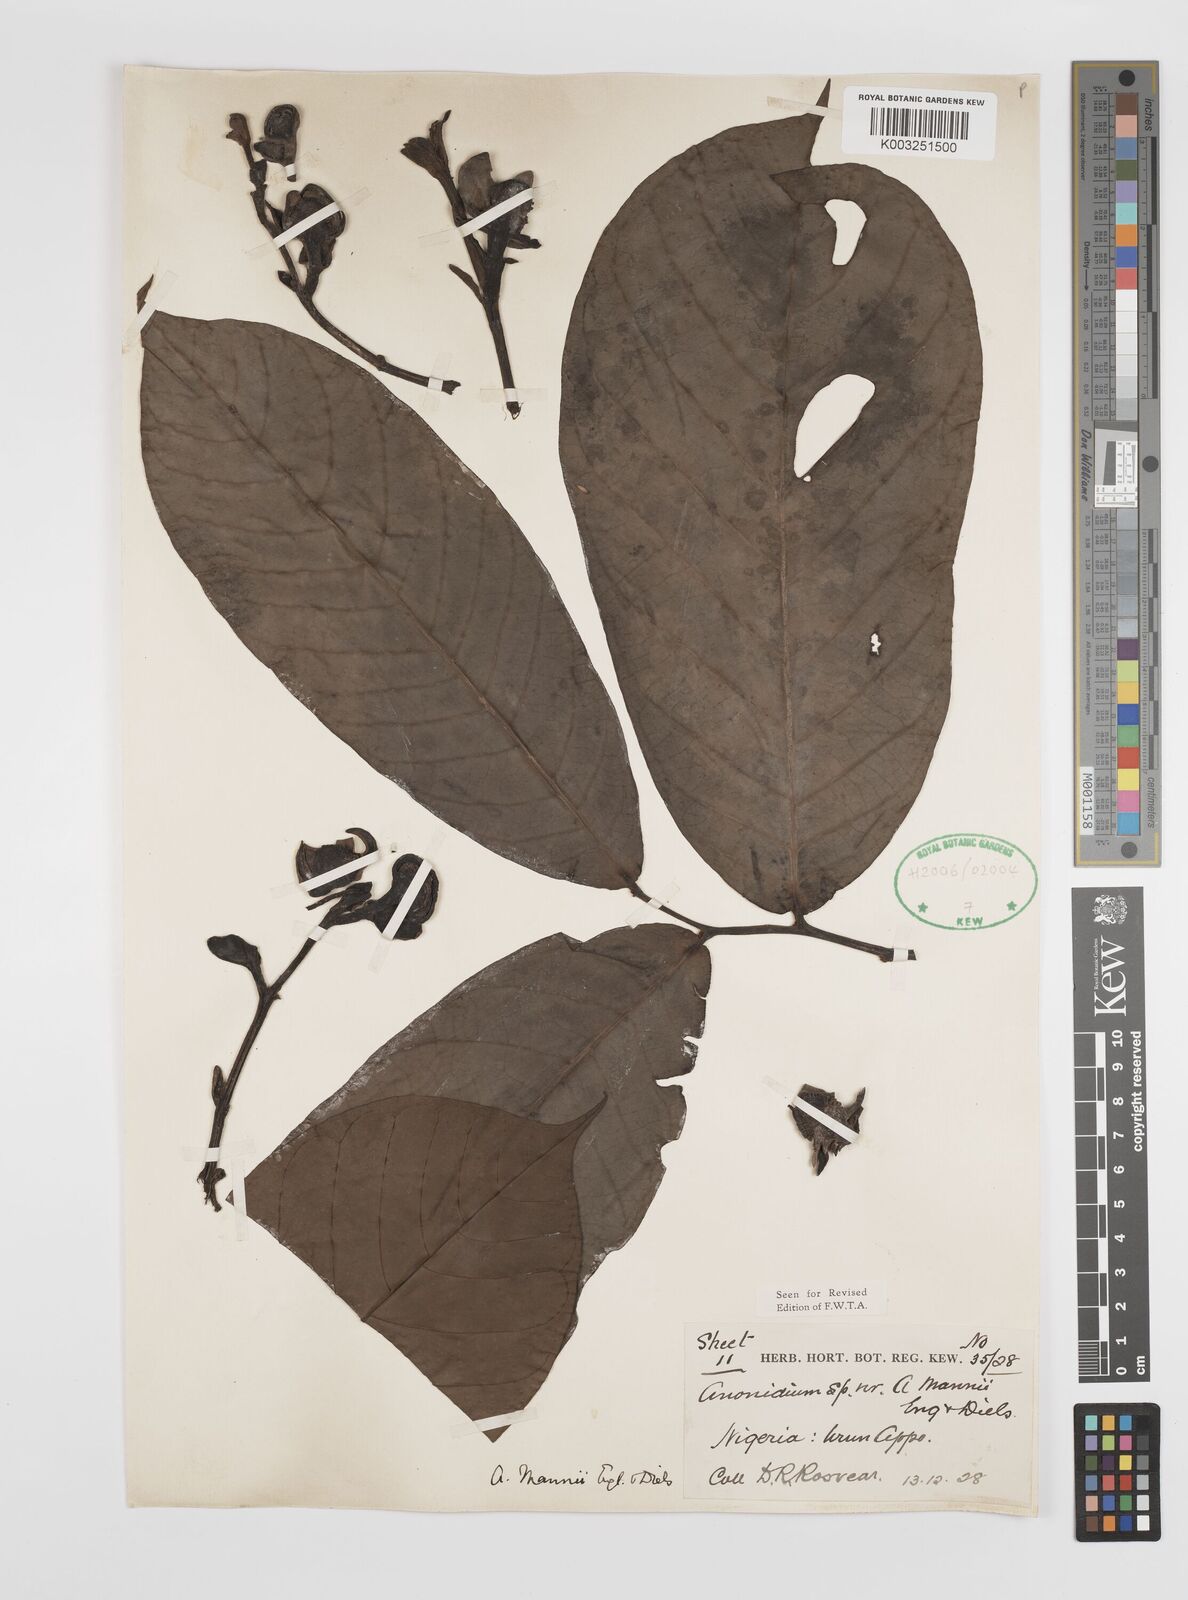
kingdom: Plantae
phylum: Tracheophyta
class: Magnoliopsida
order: Magnoliales
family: Annonaceae
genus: Anonidium
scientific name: Anonidium mannii
